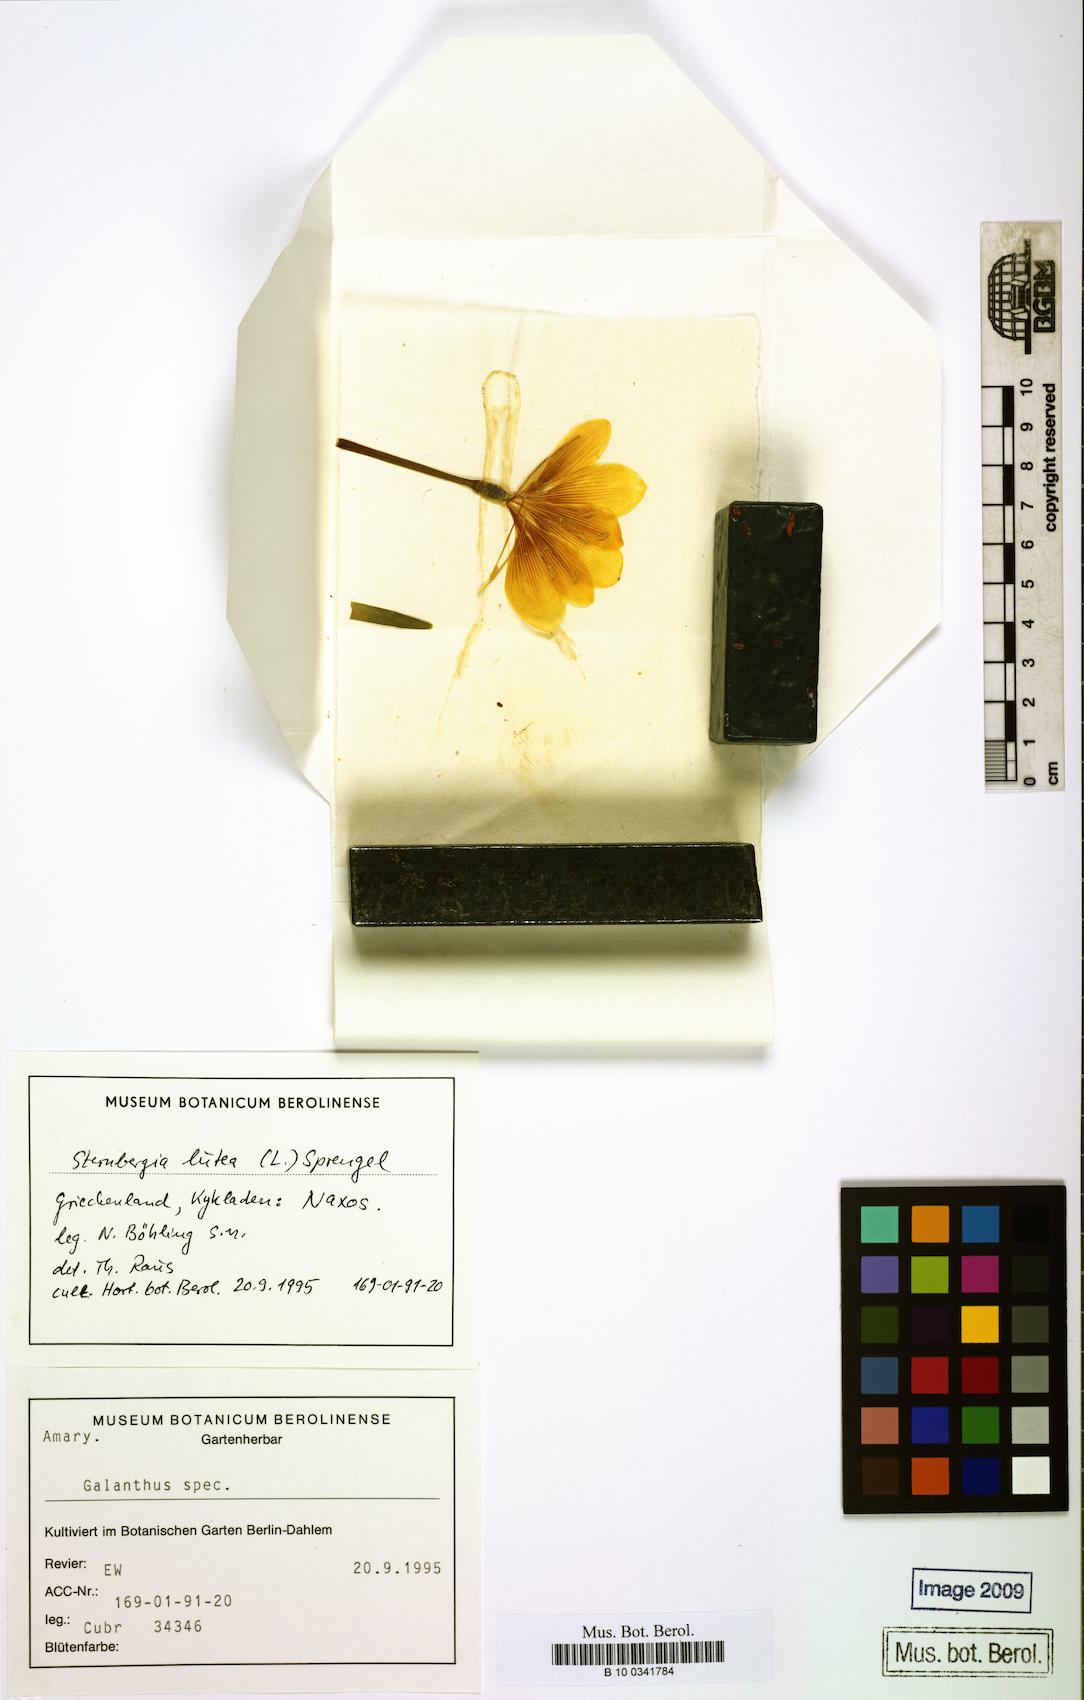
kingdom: Plantae
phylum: Tracheophyta
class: Liliopsida
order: Asparagales
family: Amaryllidaceae
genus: Sternbergia
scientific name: Sternbergia lutea
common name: Winter daffodil
